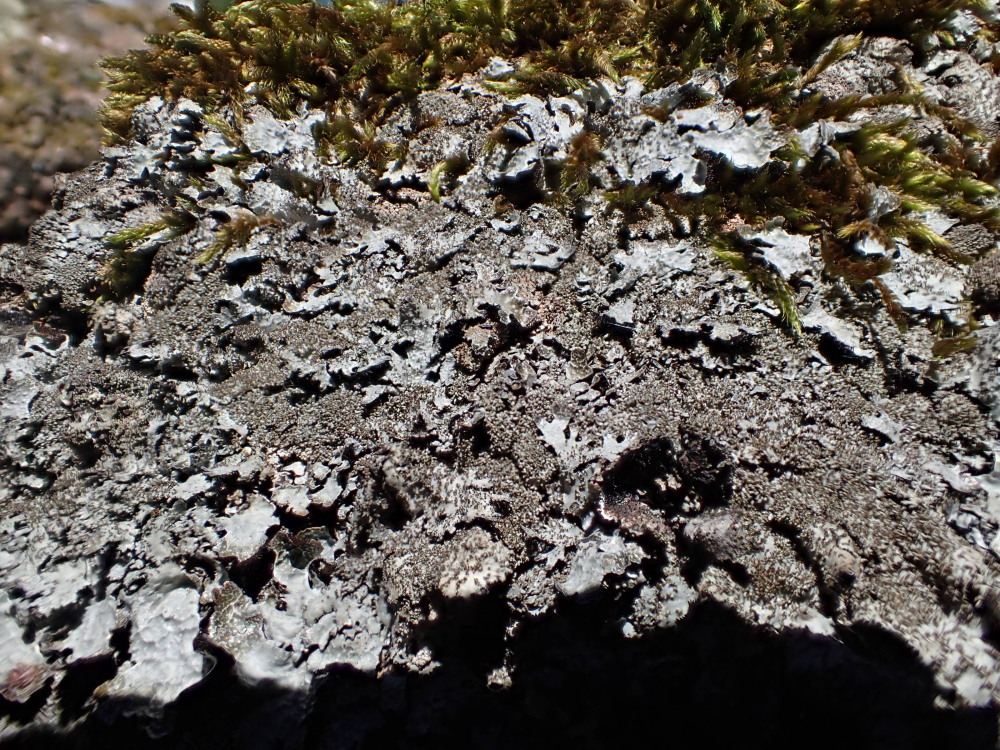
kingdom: Fungi
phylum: Ascomycota
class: Lecanoromycetes
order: Lecanorales
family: Parmeliaceae
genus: Parmelia
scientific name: Parmelia saxatilis
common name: farve-skållav
